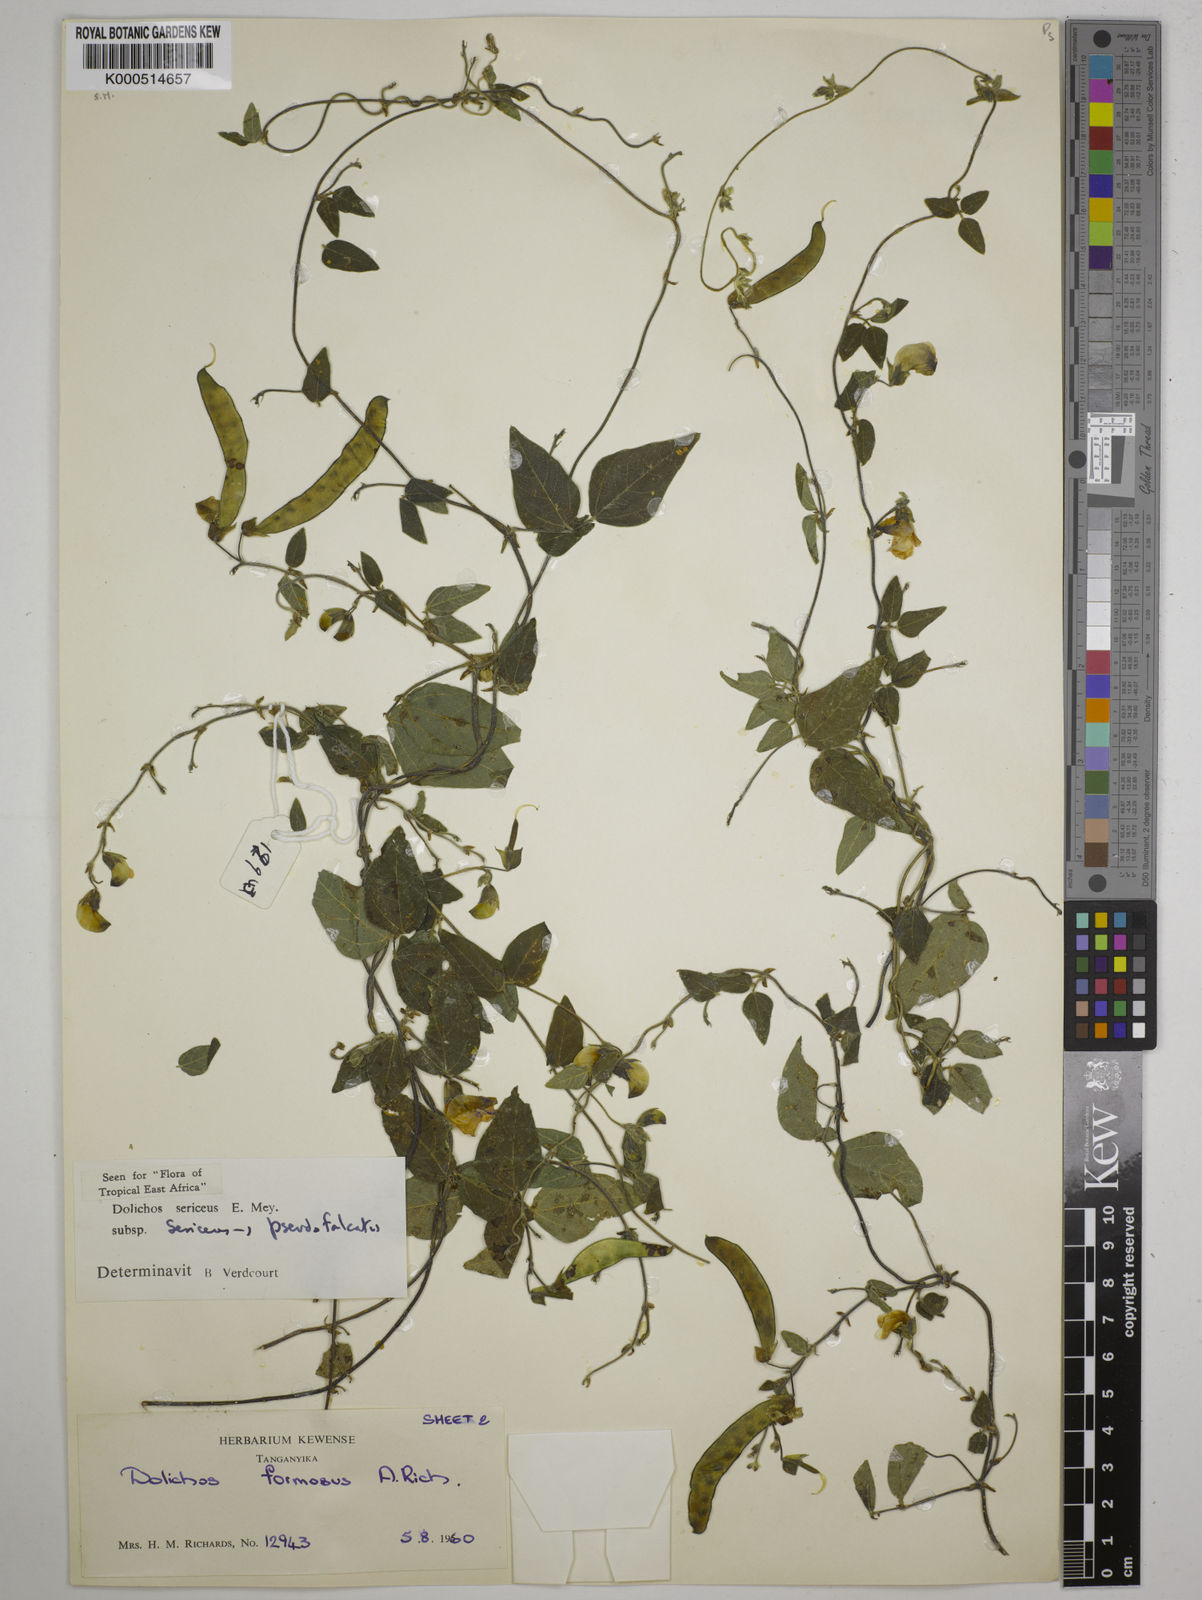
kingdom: Plantae
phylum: Tracheophyta
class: Magnoliopsida
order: Fabales
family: Fabaceae
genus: Dolichos
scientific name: Dolichos sericeus
